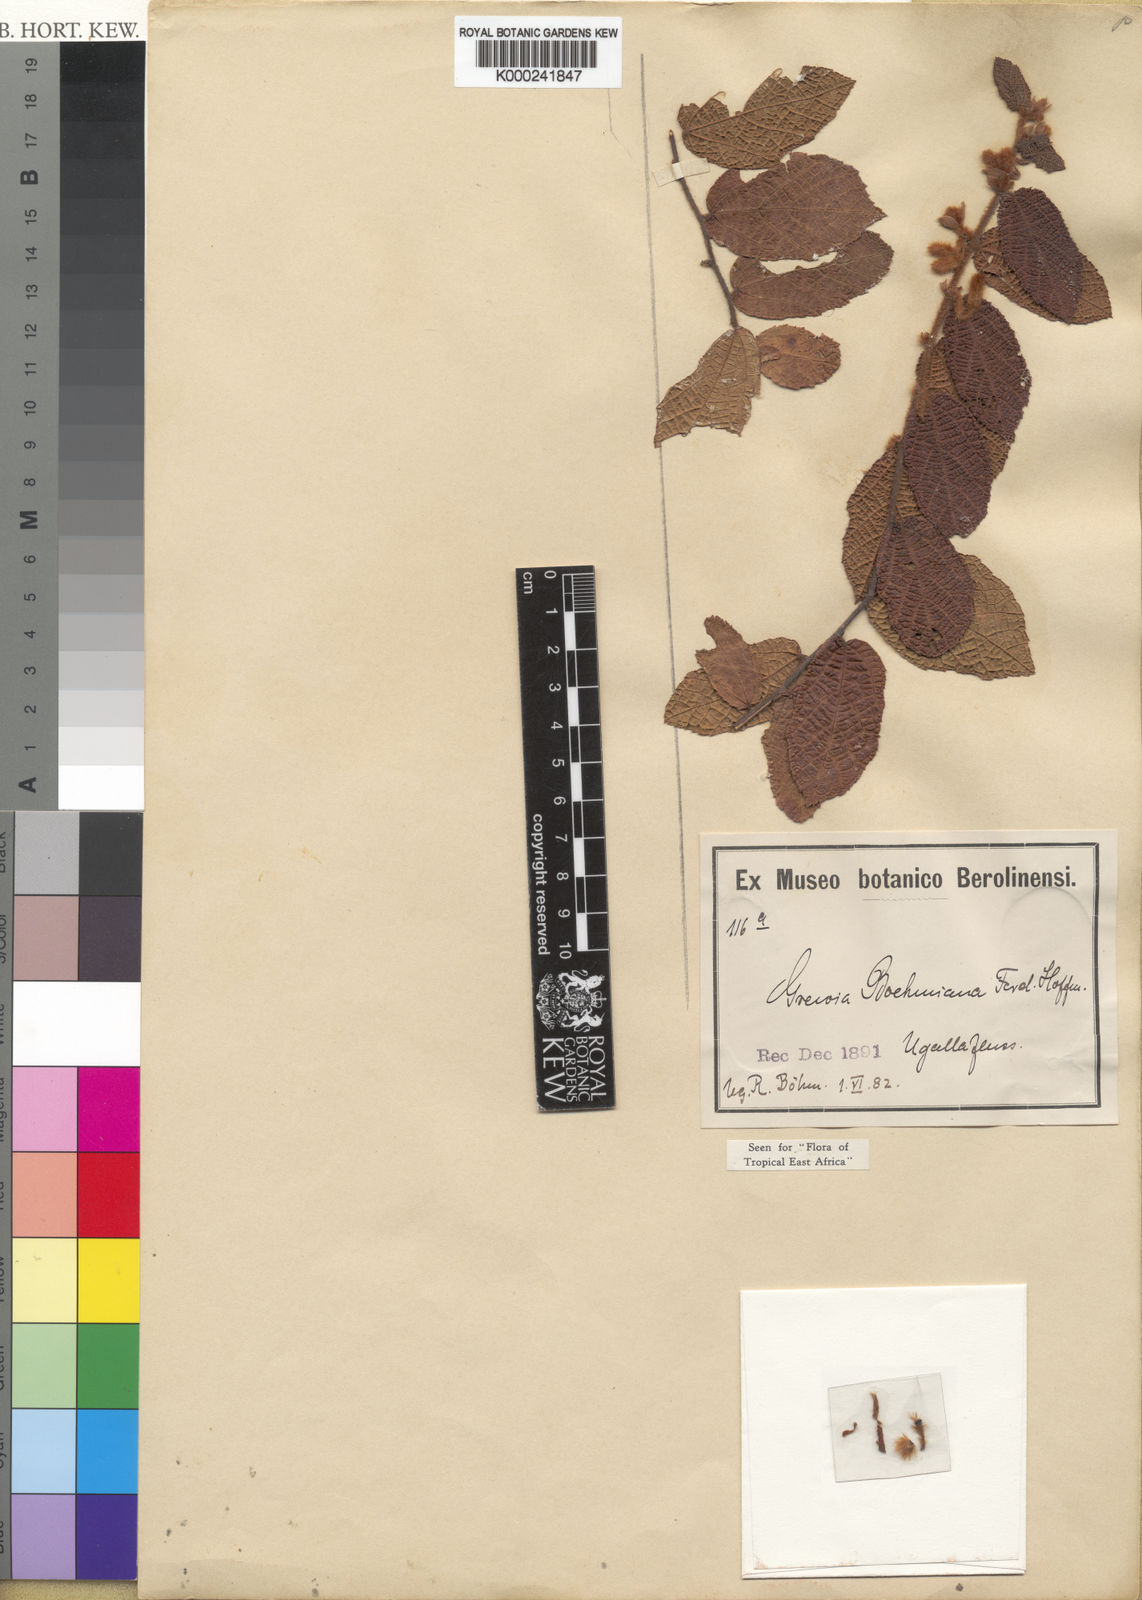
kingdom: Plantae
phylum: Tracheophyta
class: Magnoliopsida
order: Malvales
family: Malvaceae
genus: Grewia
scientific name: Grewia boehmiana
